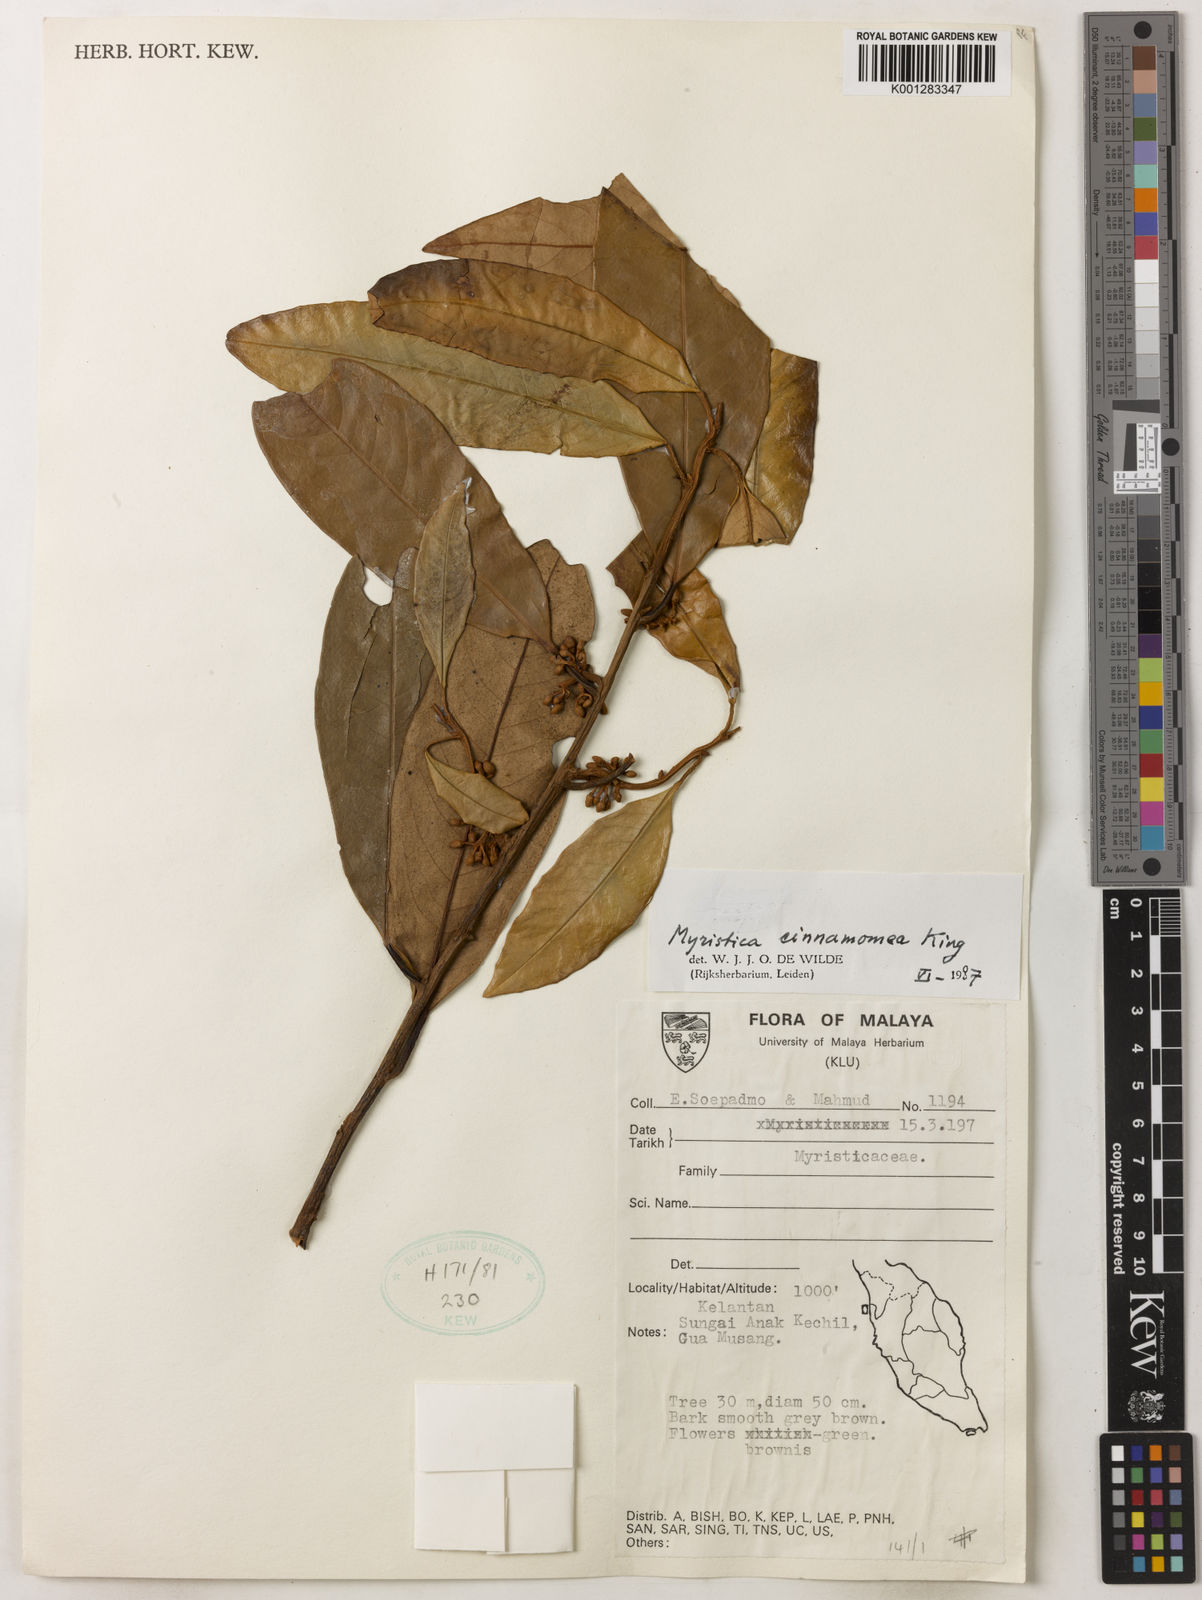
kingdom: Plantae
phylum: Tracheophyta
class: Magnoliopsida
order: Magnoliales
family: Myristicaceae
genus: Myristica
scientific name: Myristica cinnamomea
